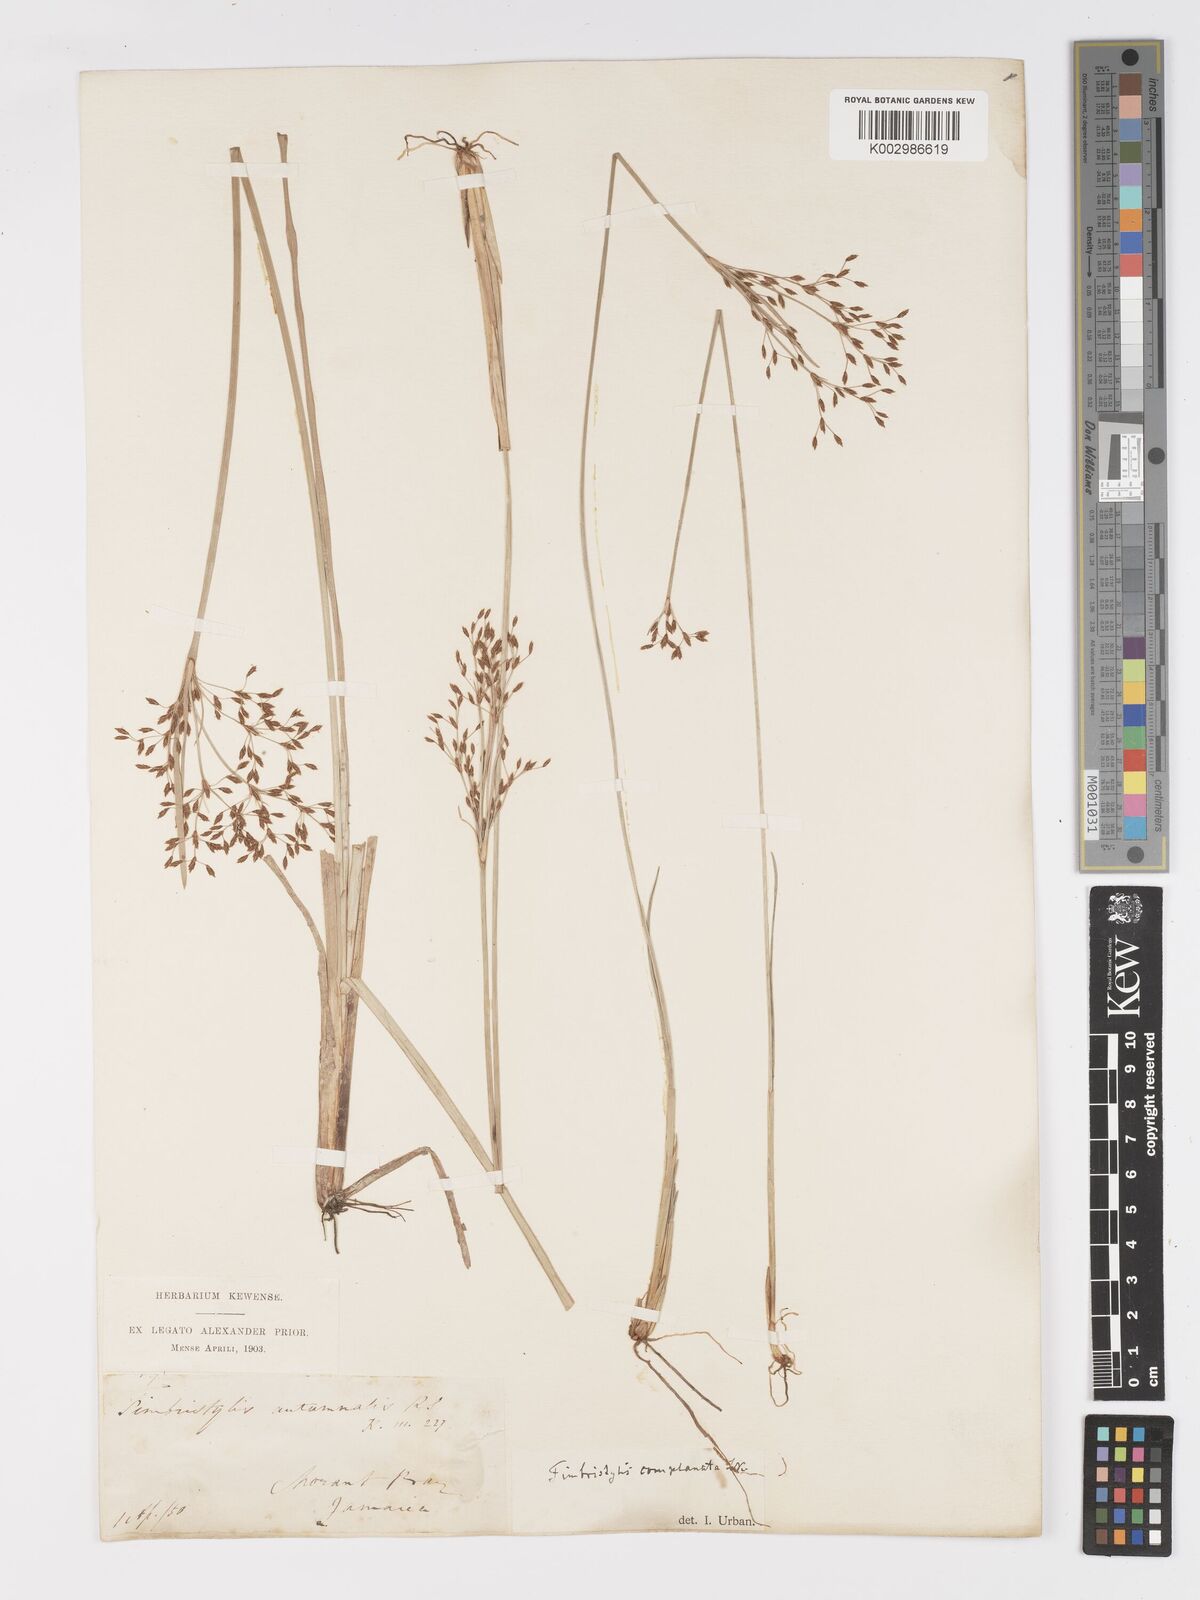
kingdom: Plantae
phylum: Tracheophyta
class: Liliopsida
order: Poales
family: Cyperaceae
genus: Fimbristylis
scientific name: Fimbristylis complanata
